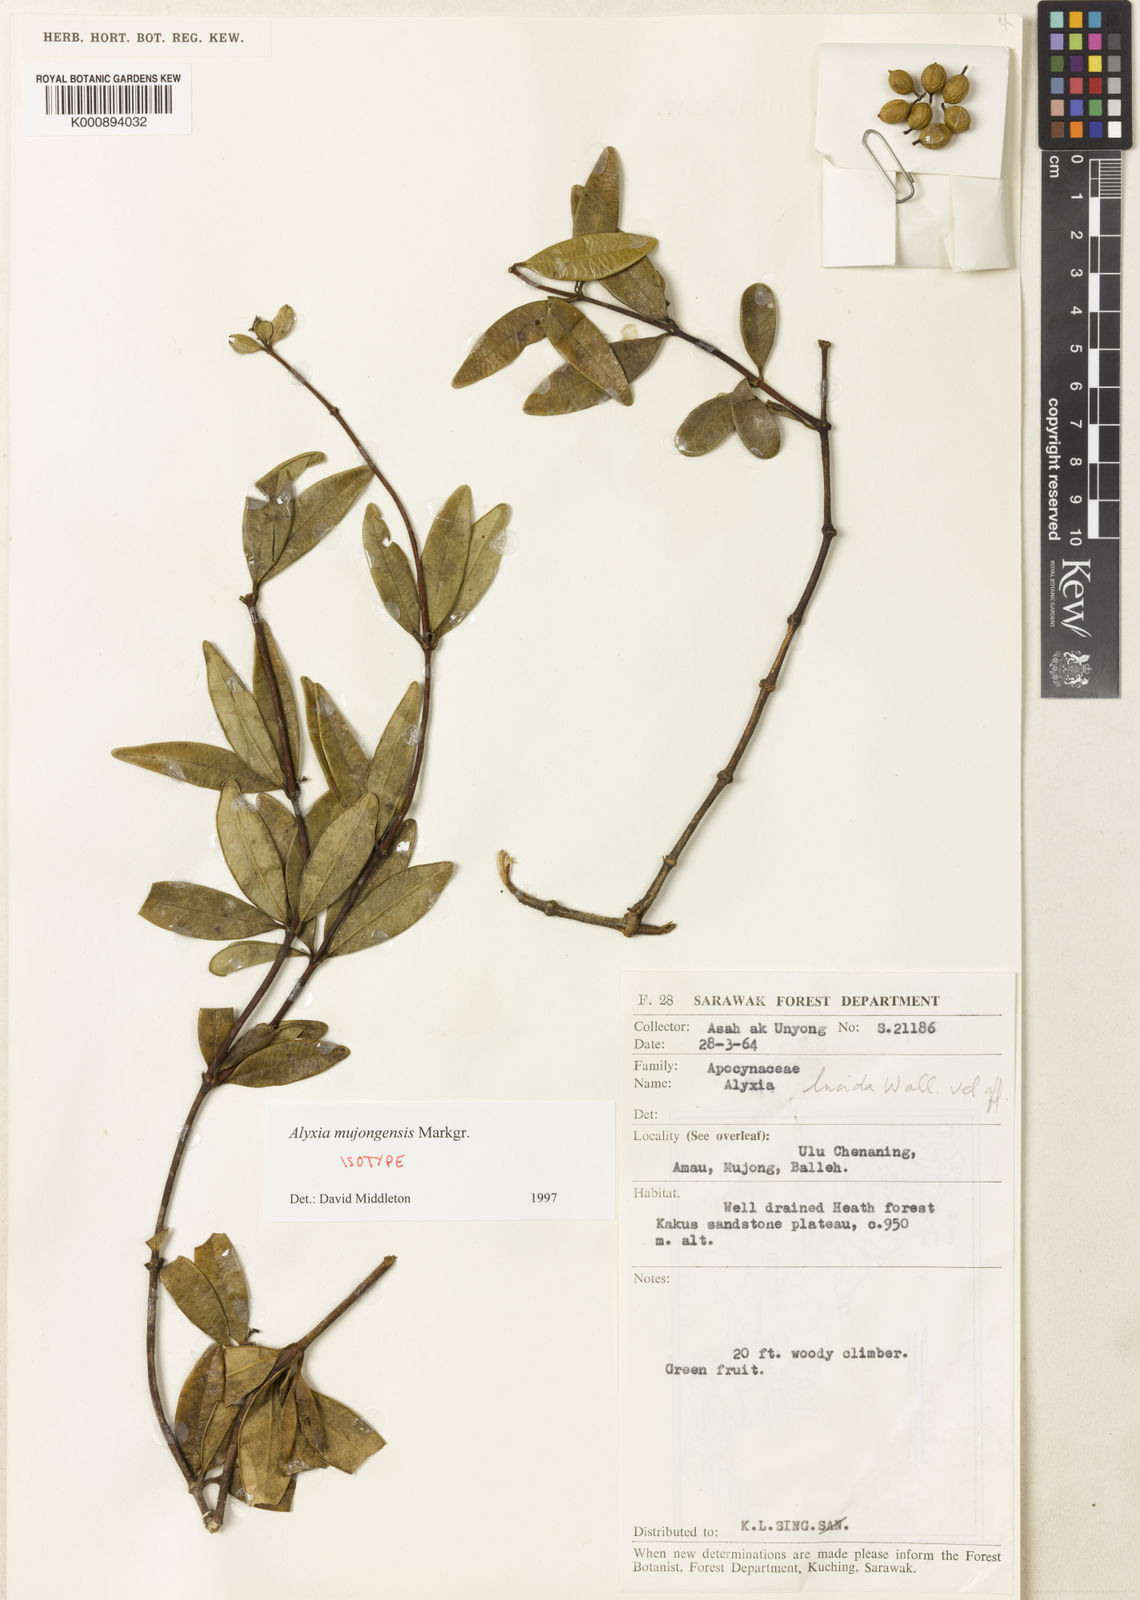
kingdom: Plantae
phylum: Tracheophyta
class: Magnoliopsida
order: Gentianales
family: Apocynaceae
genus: Alyxia
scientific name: Alyxia mujongensis
